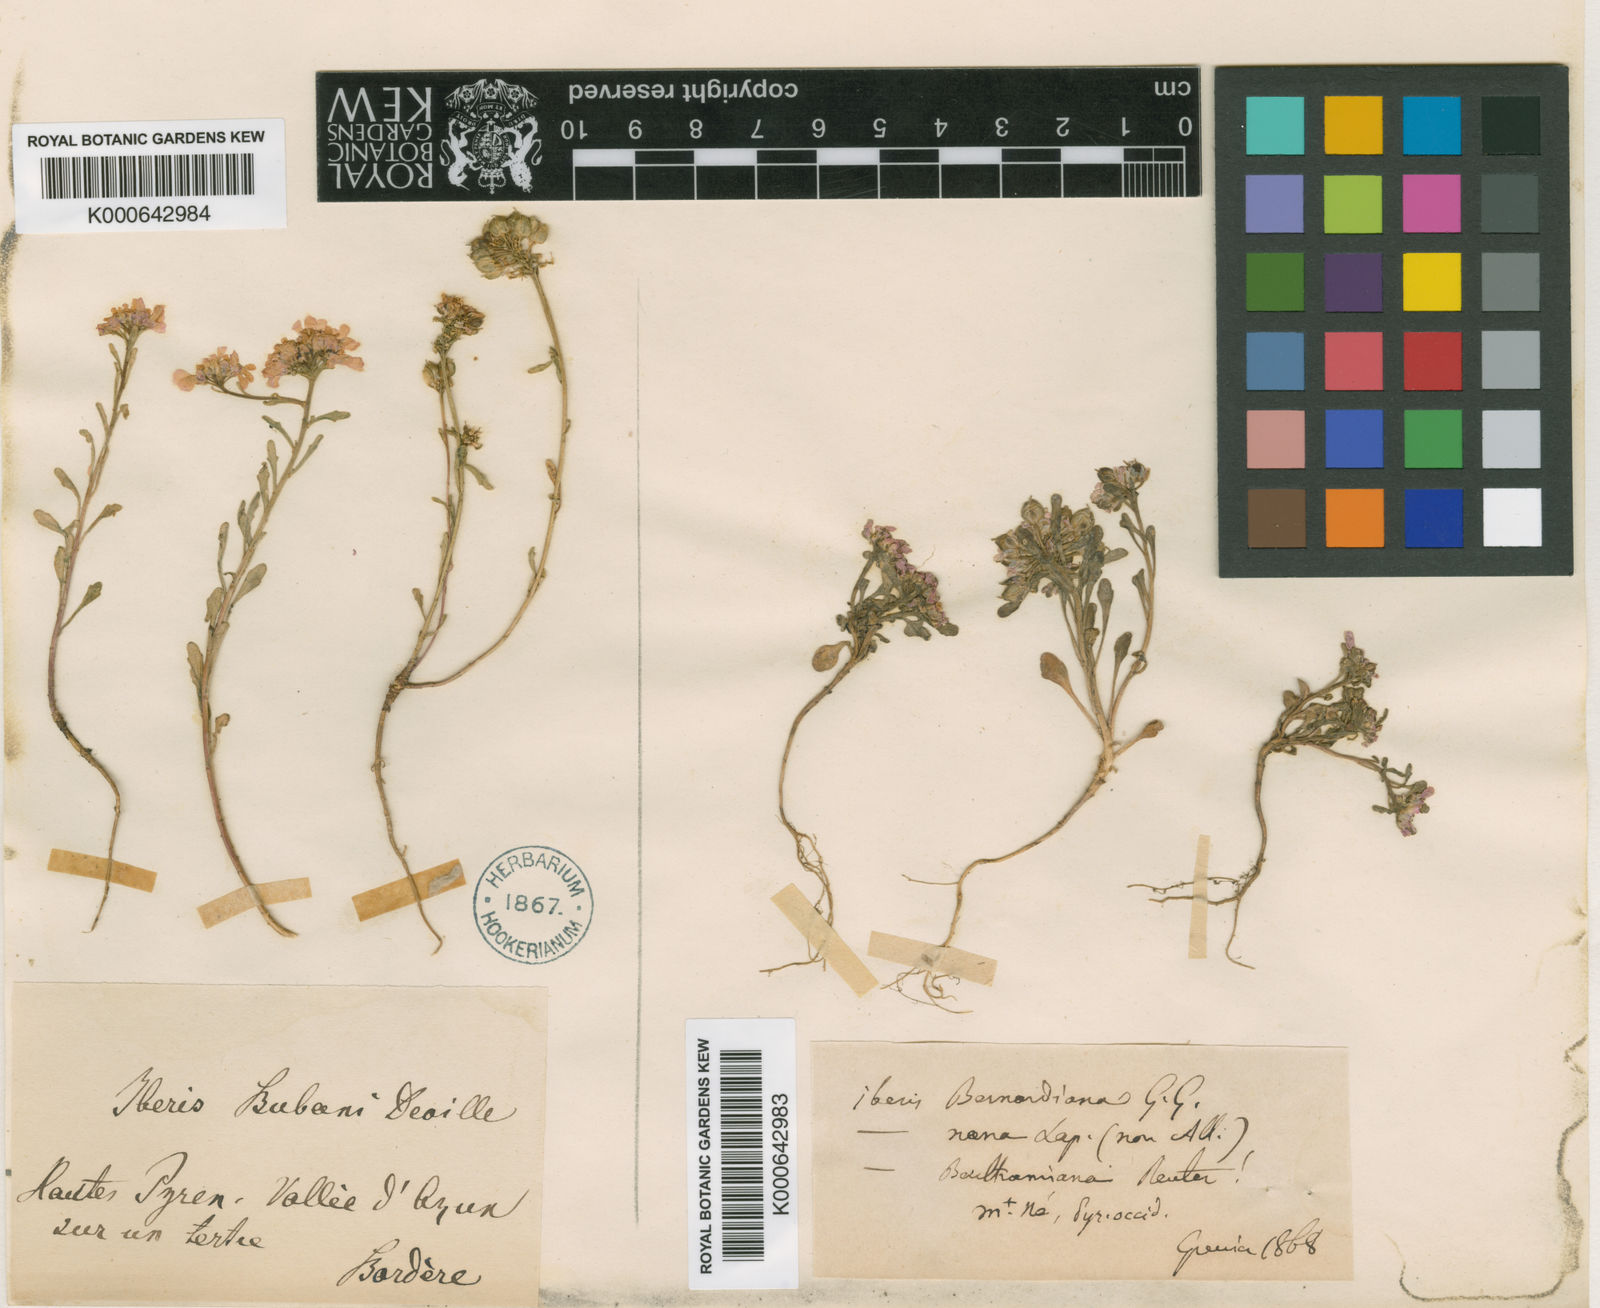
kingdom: Plantae
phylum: Tracheophyta
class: Magnoliopsida
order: Brassicales
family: Brassicaceae
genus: Iberis
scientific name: Iberis bernardiana
